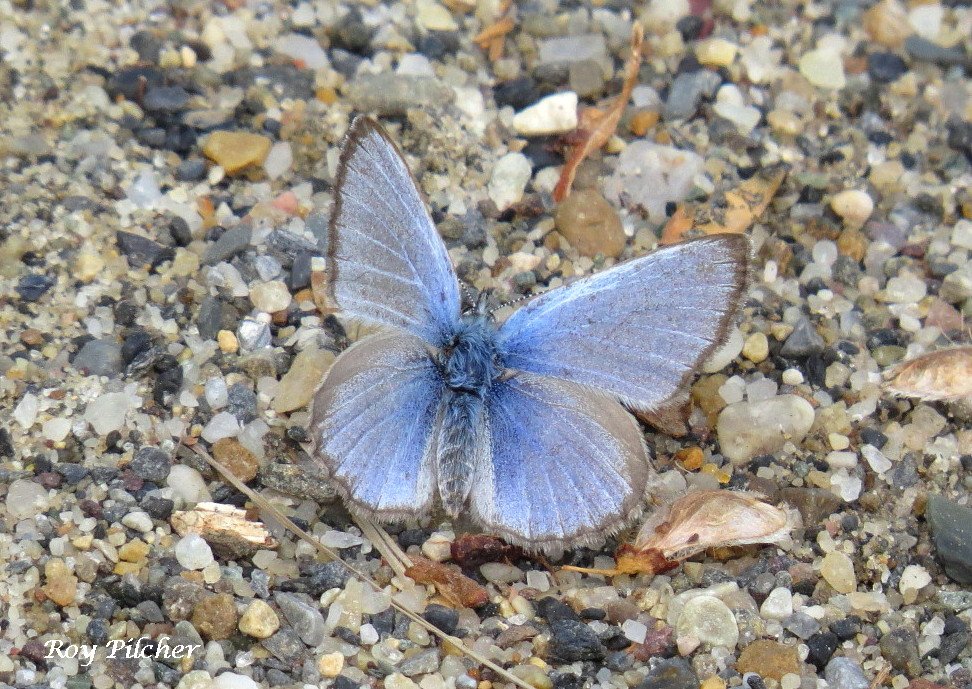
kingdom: Animalia
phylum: Arthropoda
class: Insecta
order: Lepidoptera
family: Lycaenidae
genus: Glaucopsyche
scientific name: Glaucopsyche lygdamus
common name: Silvery Blue
